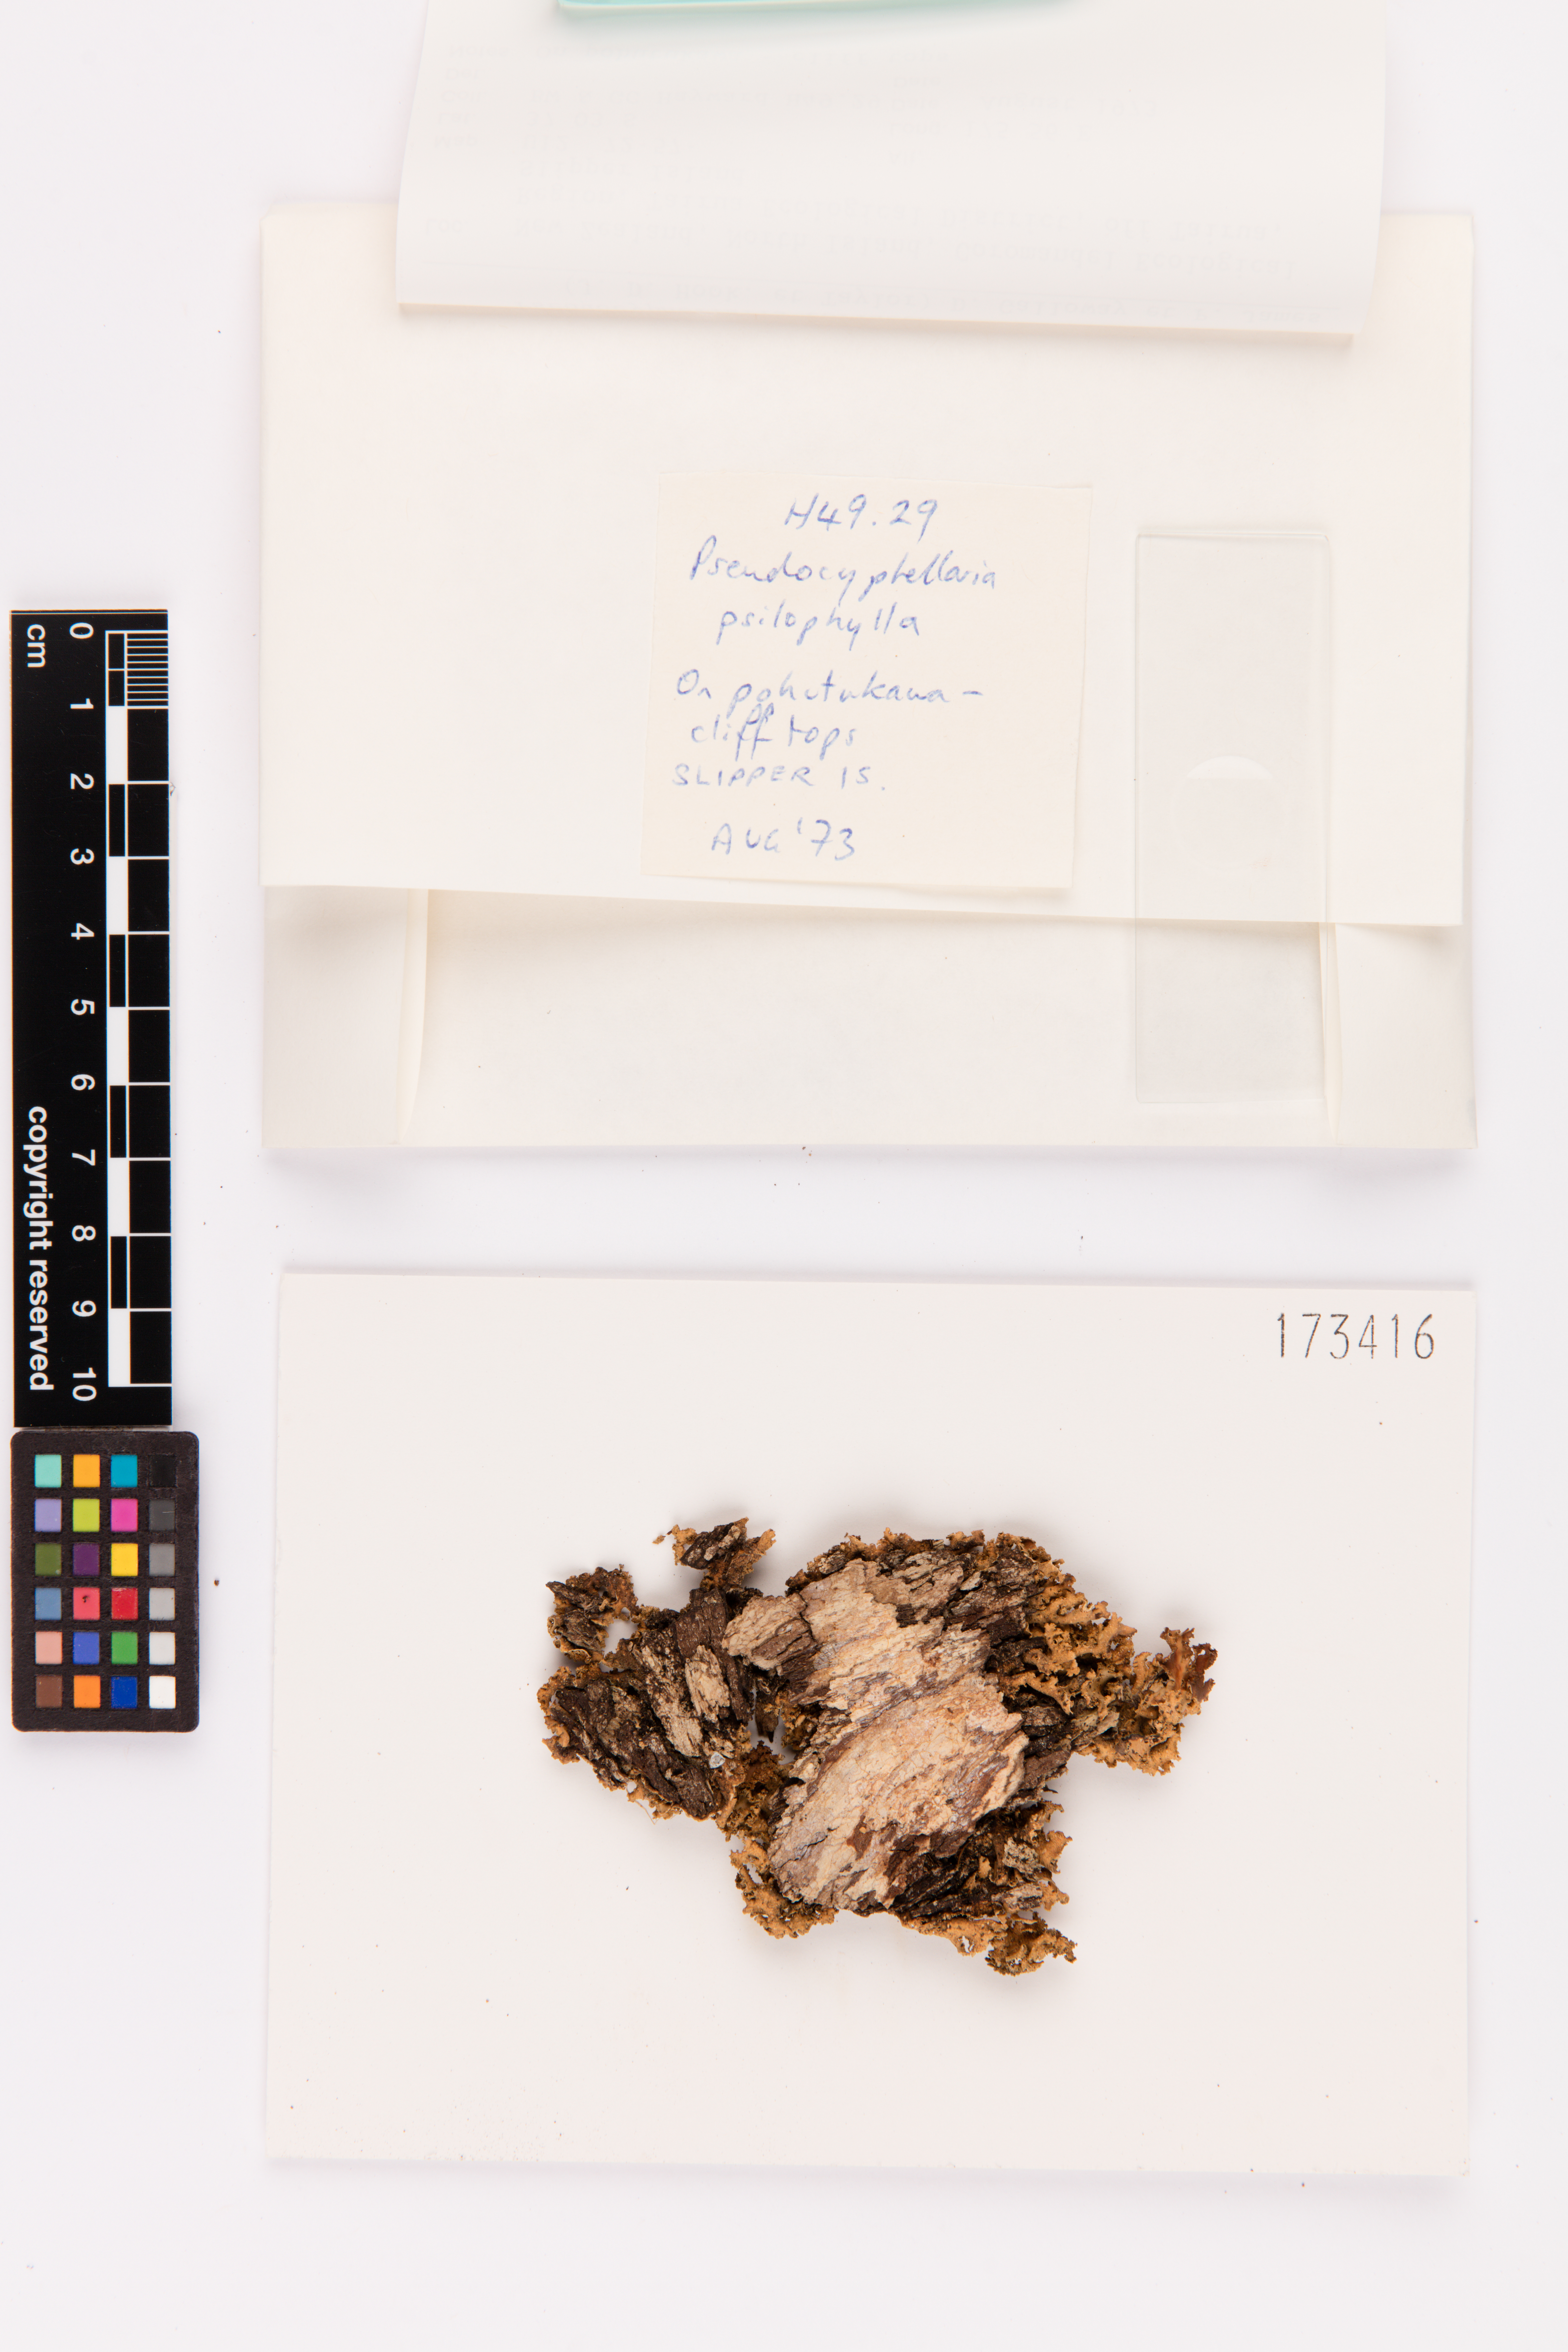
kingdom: Fungi
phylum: Ascomycota
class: Lecanoromycetes
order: Peltigerales
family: Lobariaceae
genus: Pseudocyphellaria
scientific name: Pseudocyphellaria coriacea
